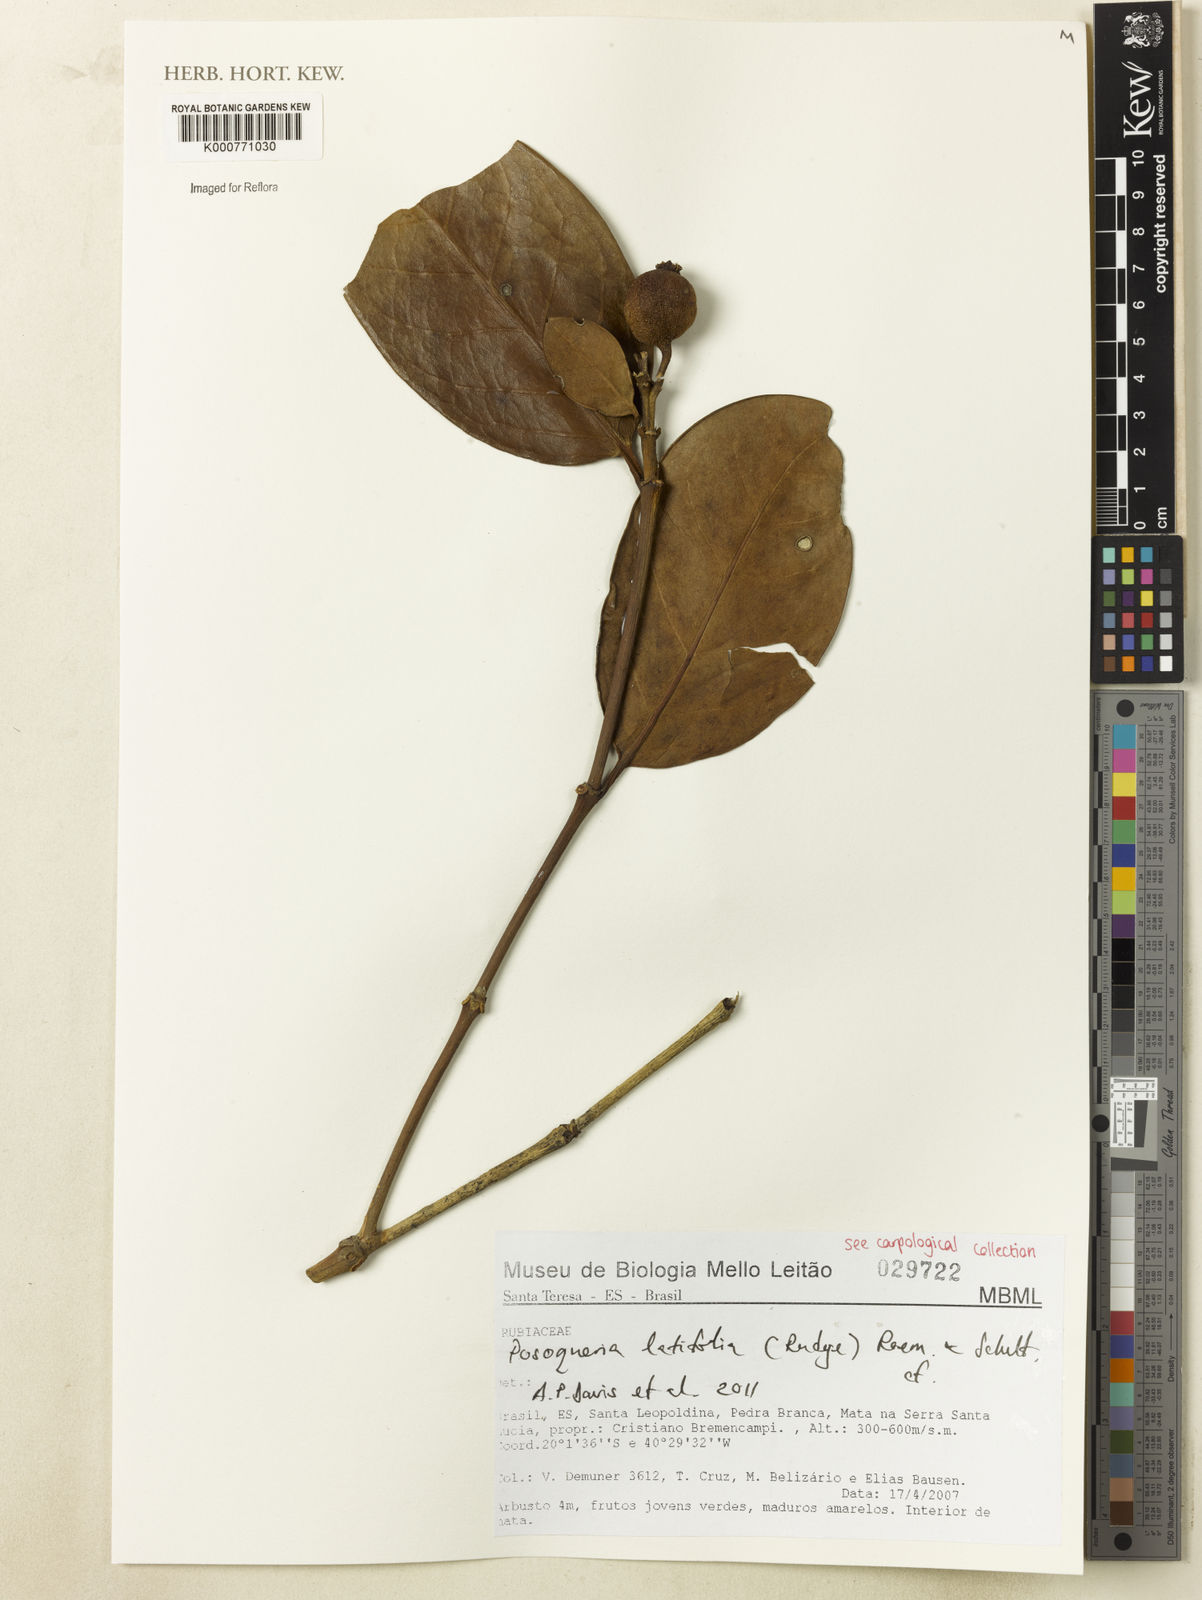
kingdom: Plantae
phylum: Tracheophyta
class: Magnoliopsida
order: Gentianales
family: Rubiaceae
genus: Posoqueria
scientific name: Posoqueria latifolia
